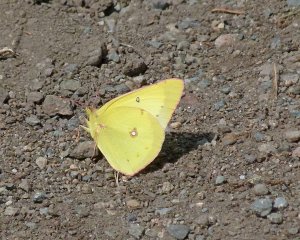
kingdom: Animalia
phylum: Arthropoda
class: Insecta
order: Lepidoptera
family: Pieridae
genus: Colias
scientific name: Colias philodice
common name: Clouded Sulphur
